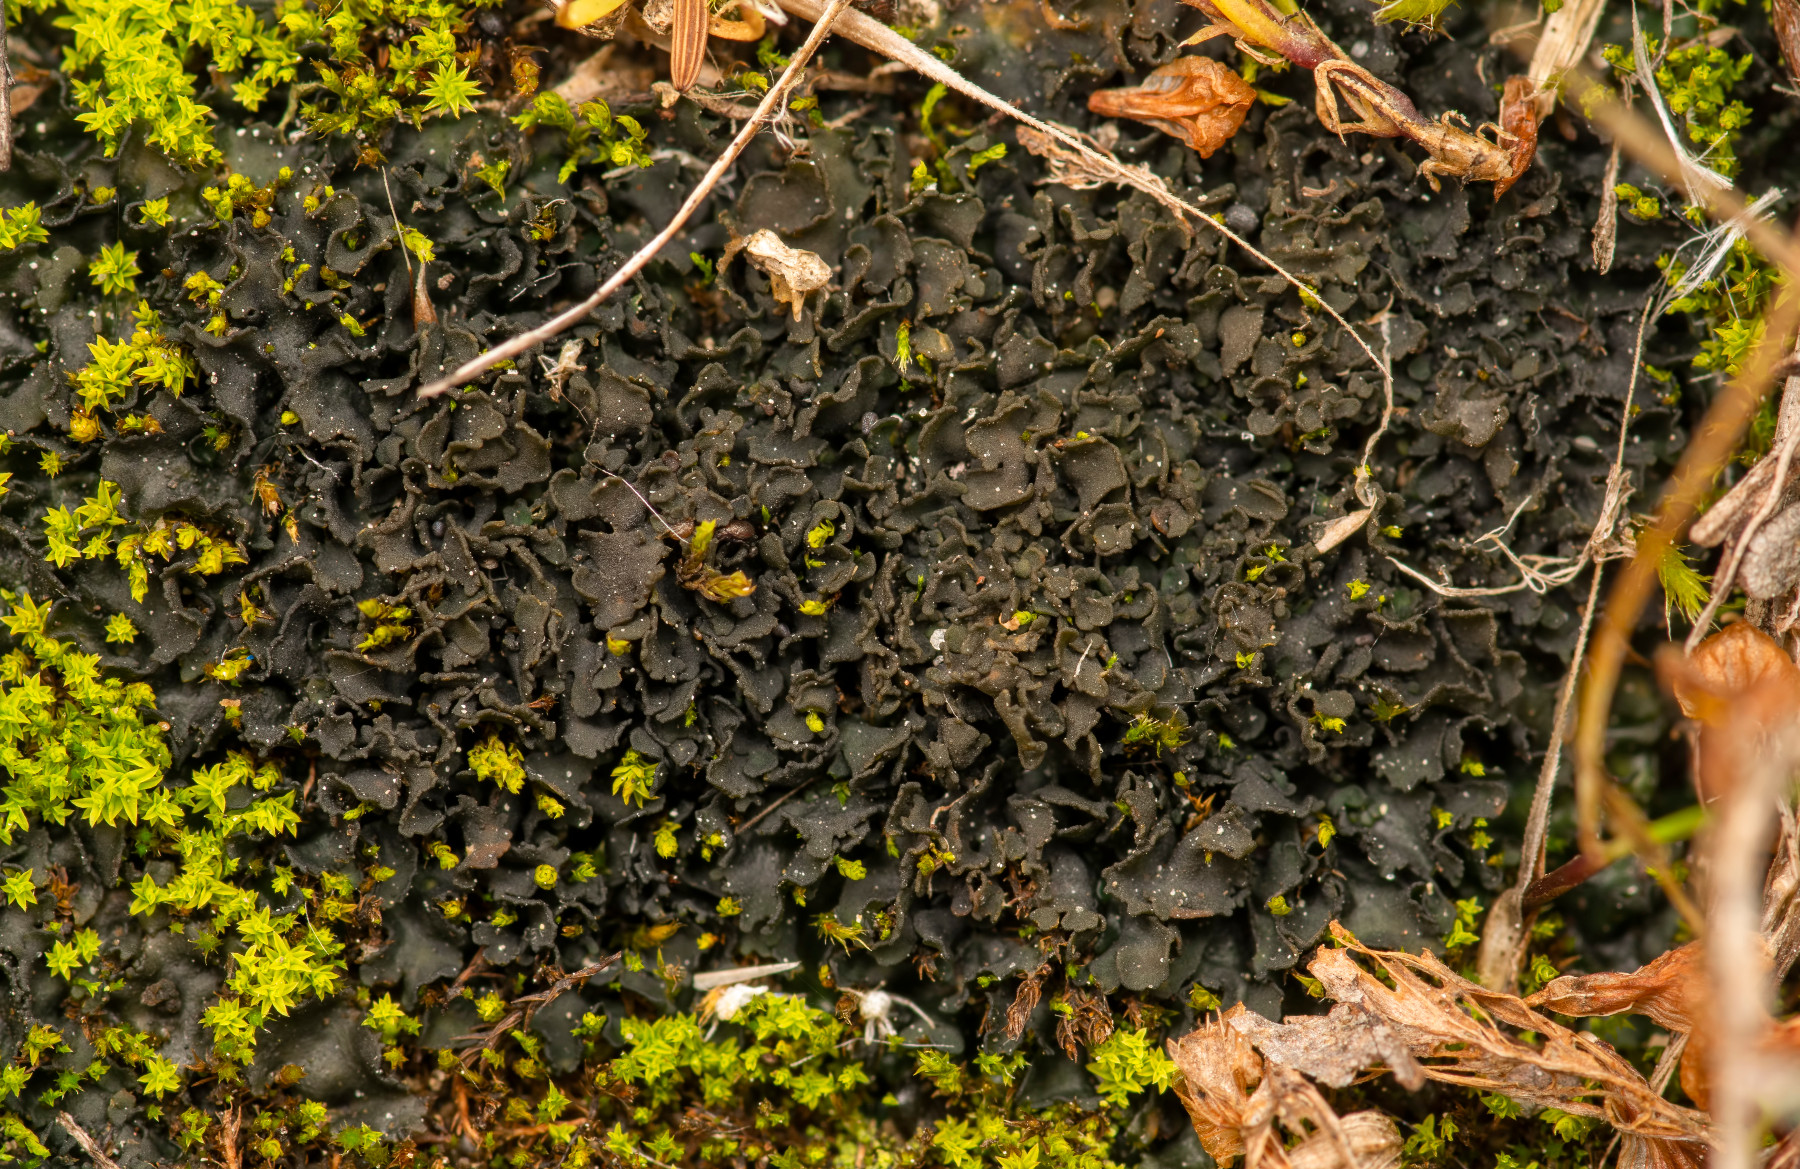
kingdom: Fungi
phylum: Ascomycota
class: Lecanoromycetes
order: Peltigerales
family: Collemataceae
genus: Blennothallia
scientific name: Blennothallia crispa
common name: kruset bævrelav
